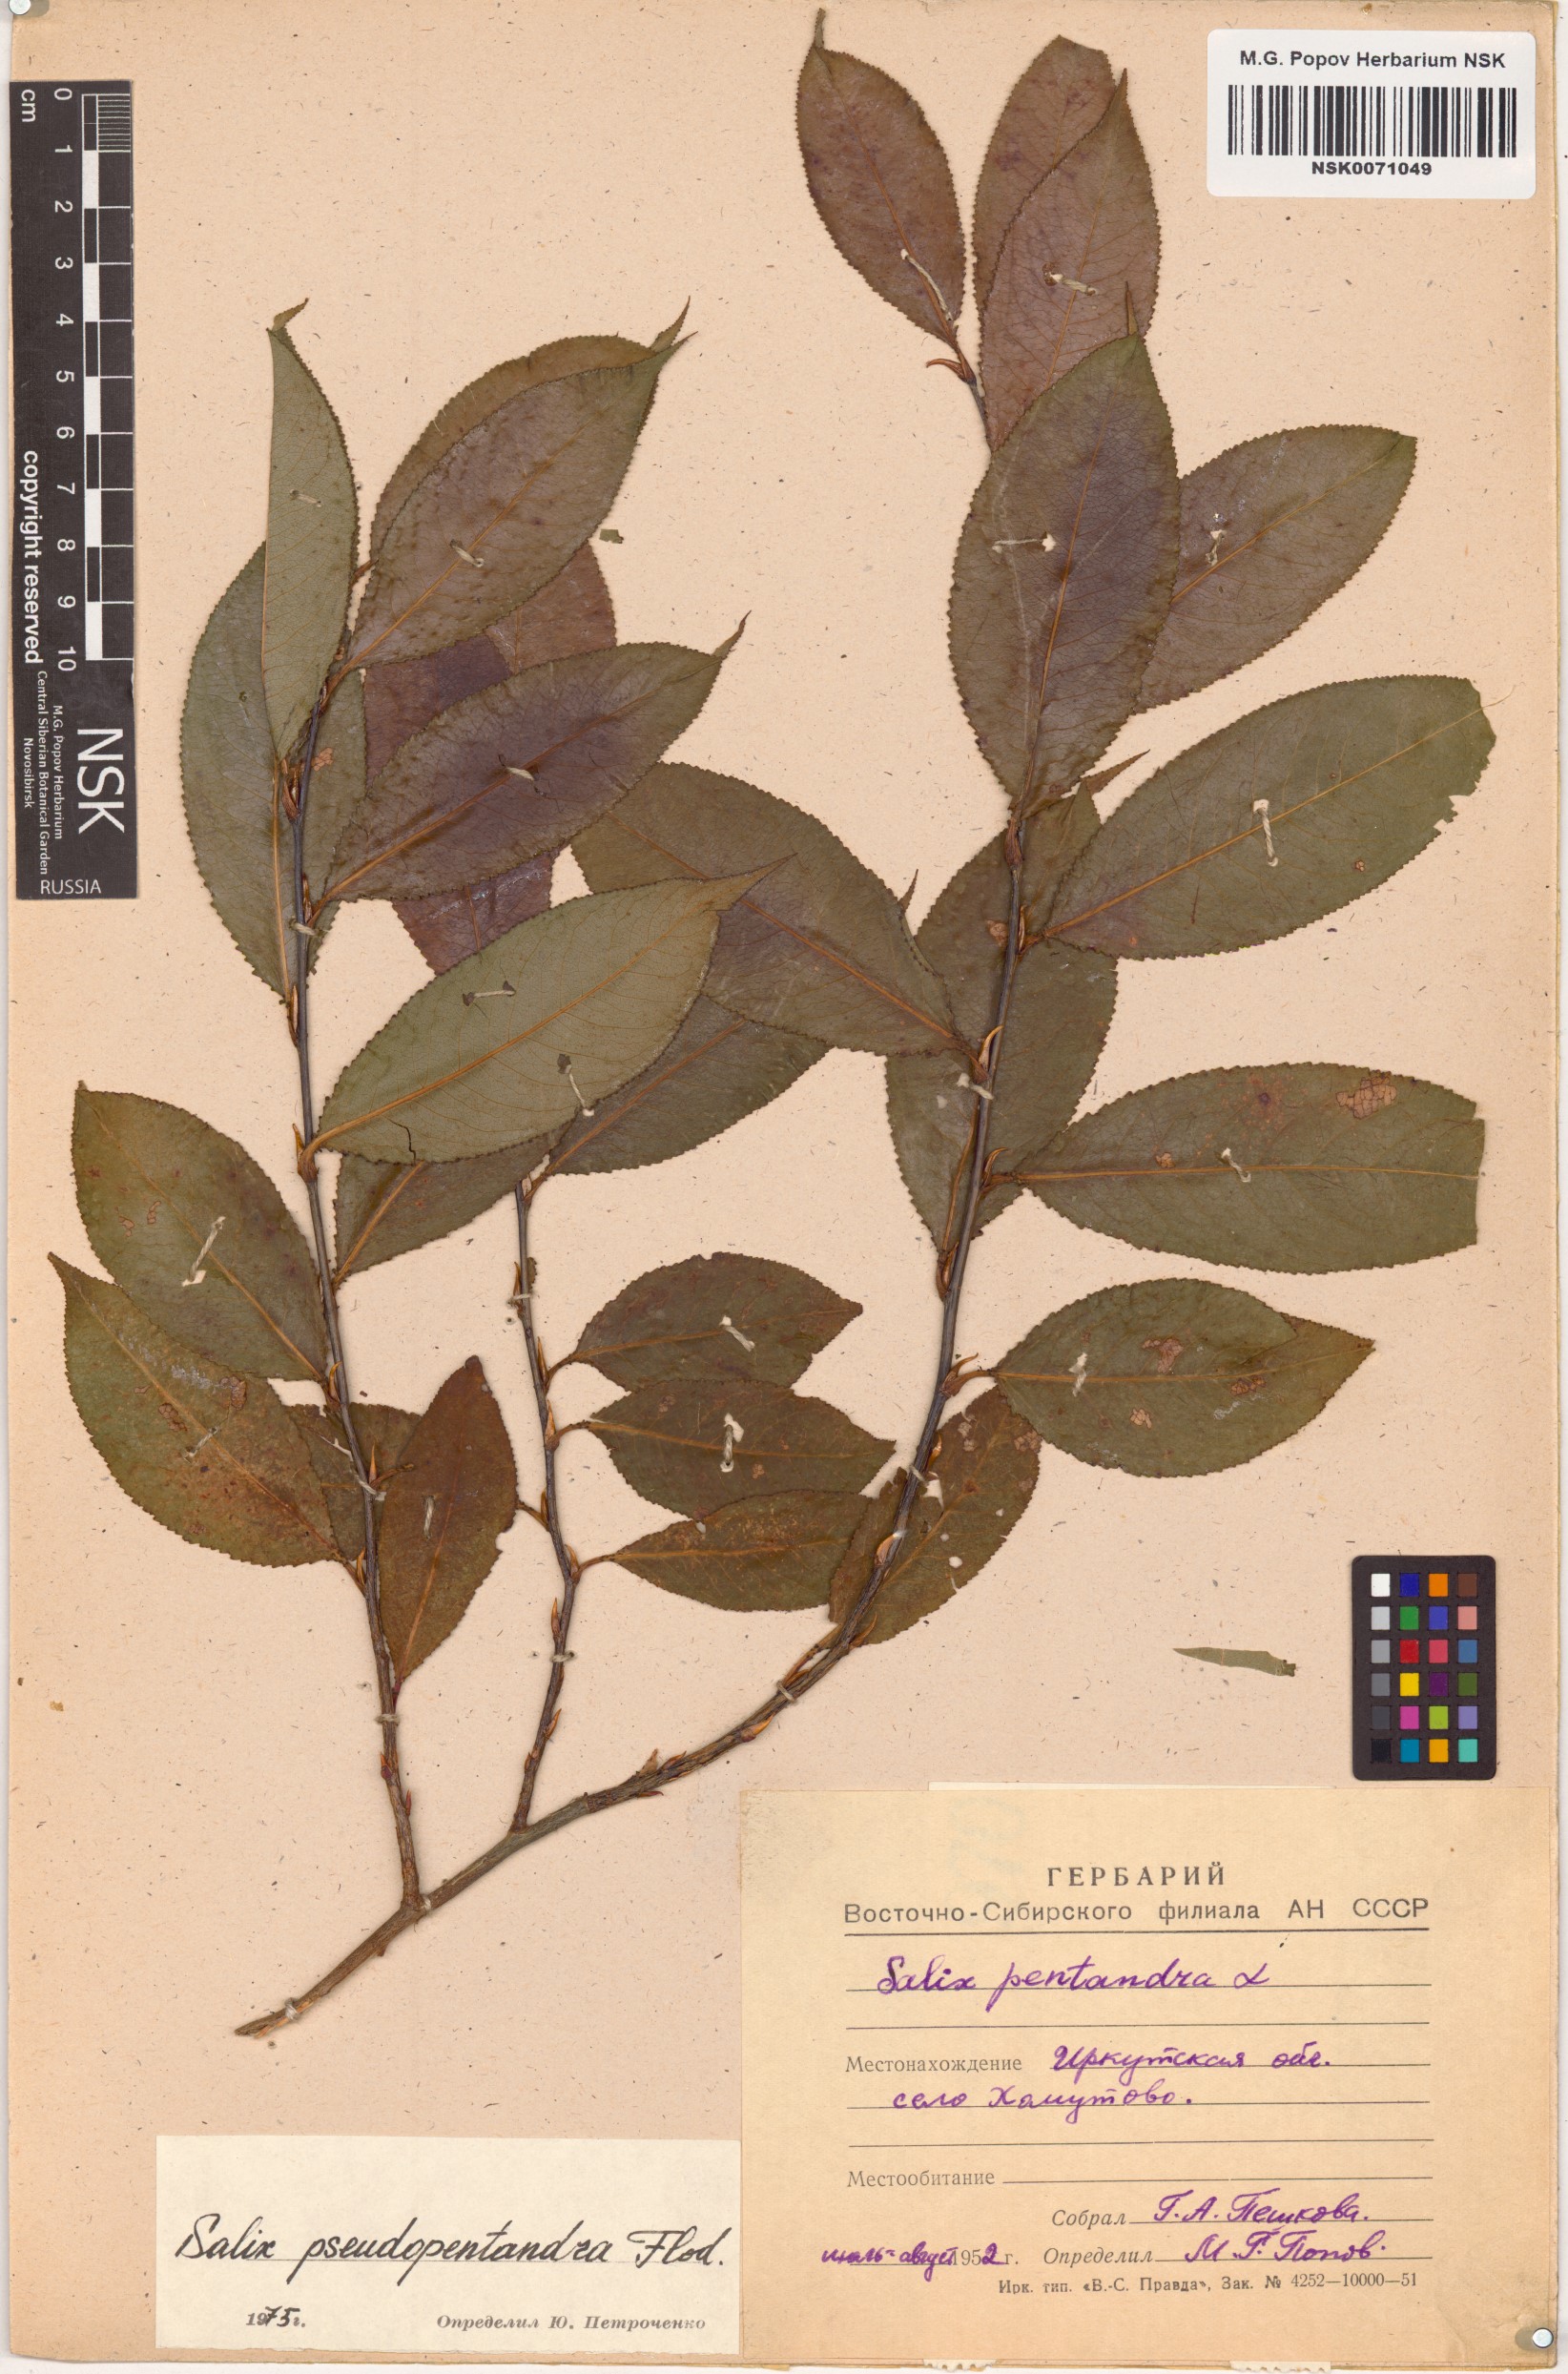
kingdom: Plantae
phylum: Tracheophyta
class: Magnoliopsida
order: Malpighiales
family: Salicaceae
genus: Salix
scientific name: Salix pseudopentandra
